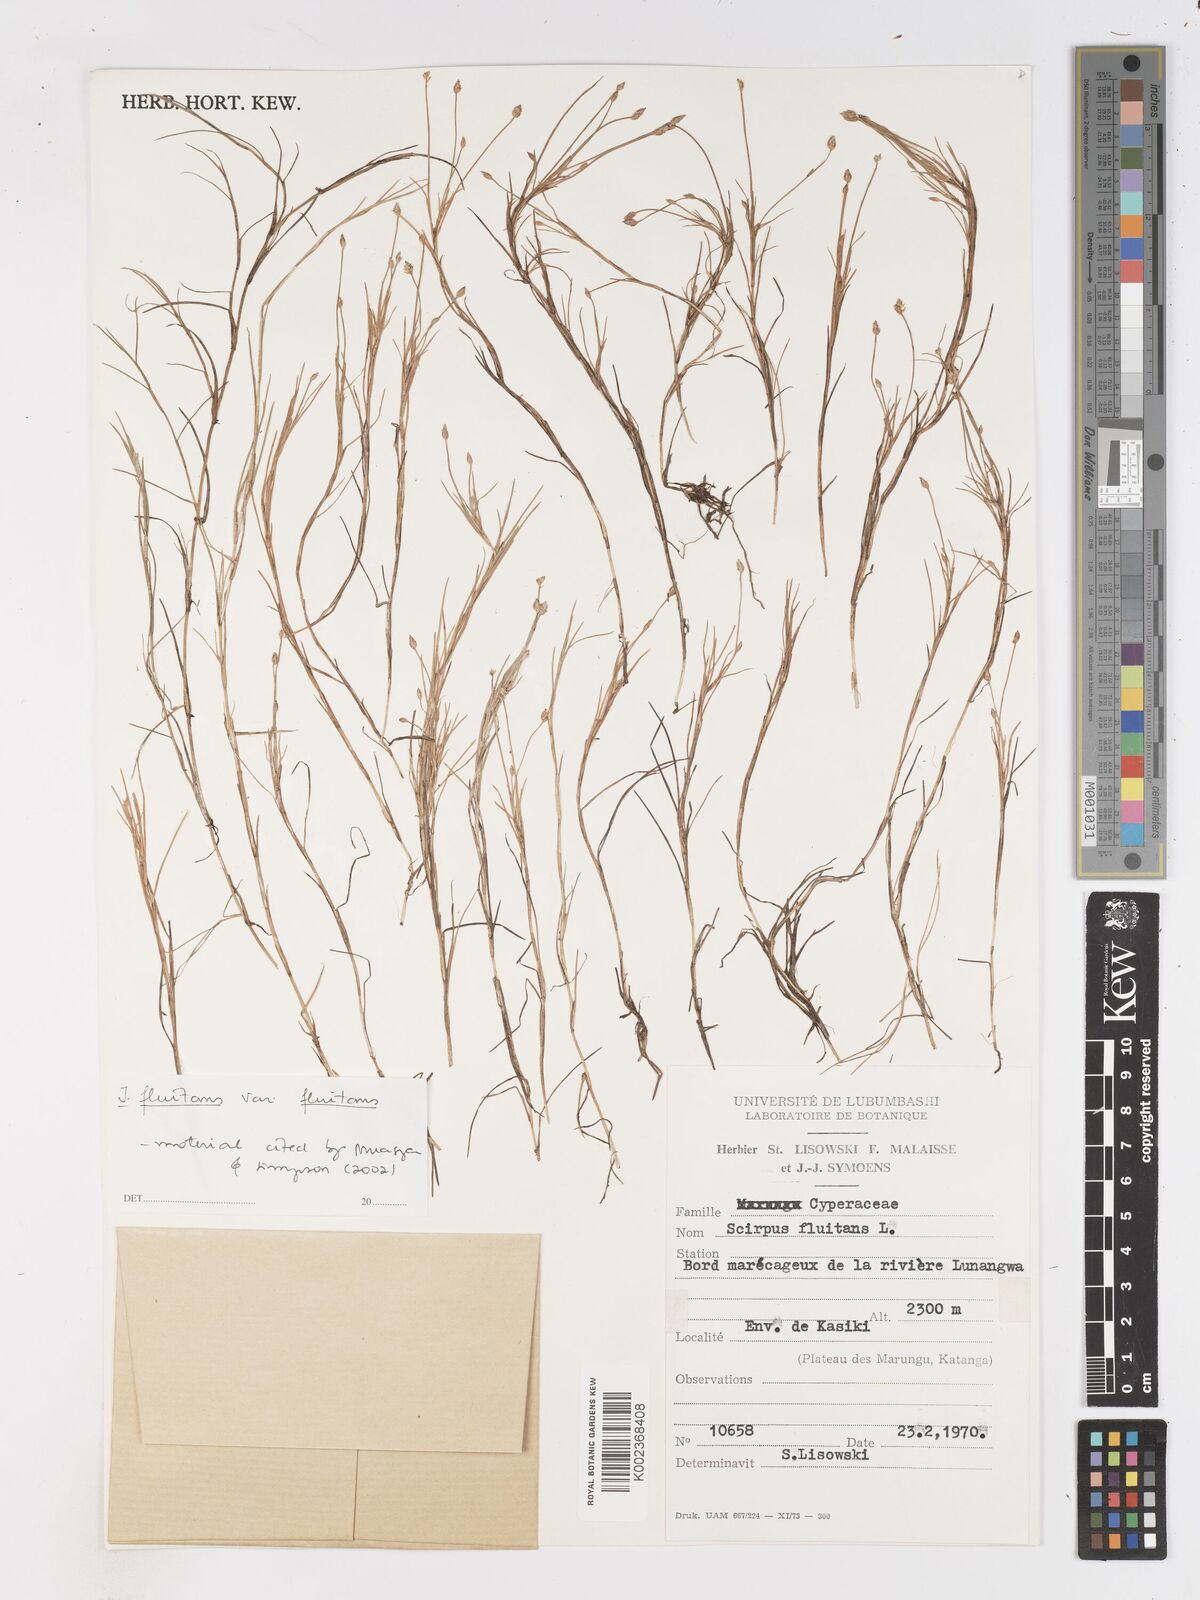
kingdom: Plantae
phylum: Tracheophyta
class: Liliopsida
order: Poales
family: Cyperaceae
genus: Isolepis
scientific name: Isolepis fluitans
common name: Floating club-rush
